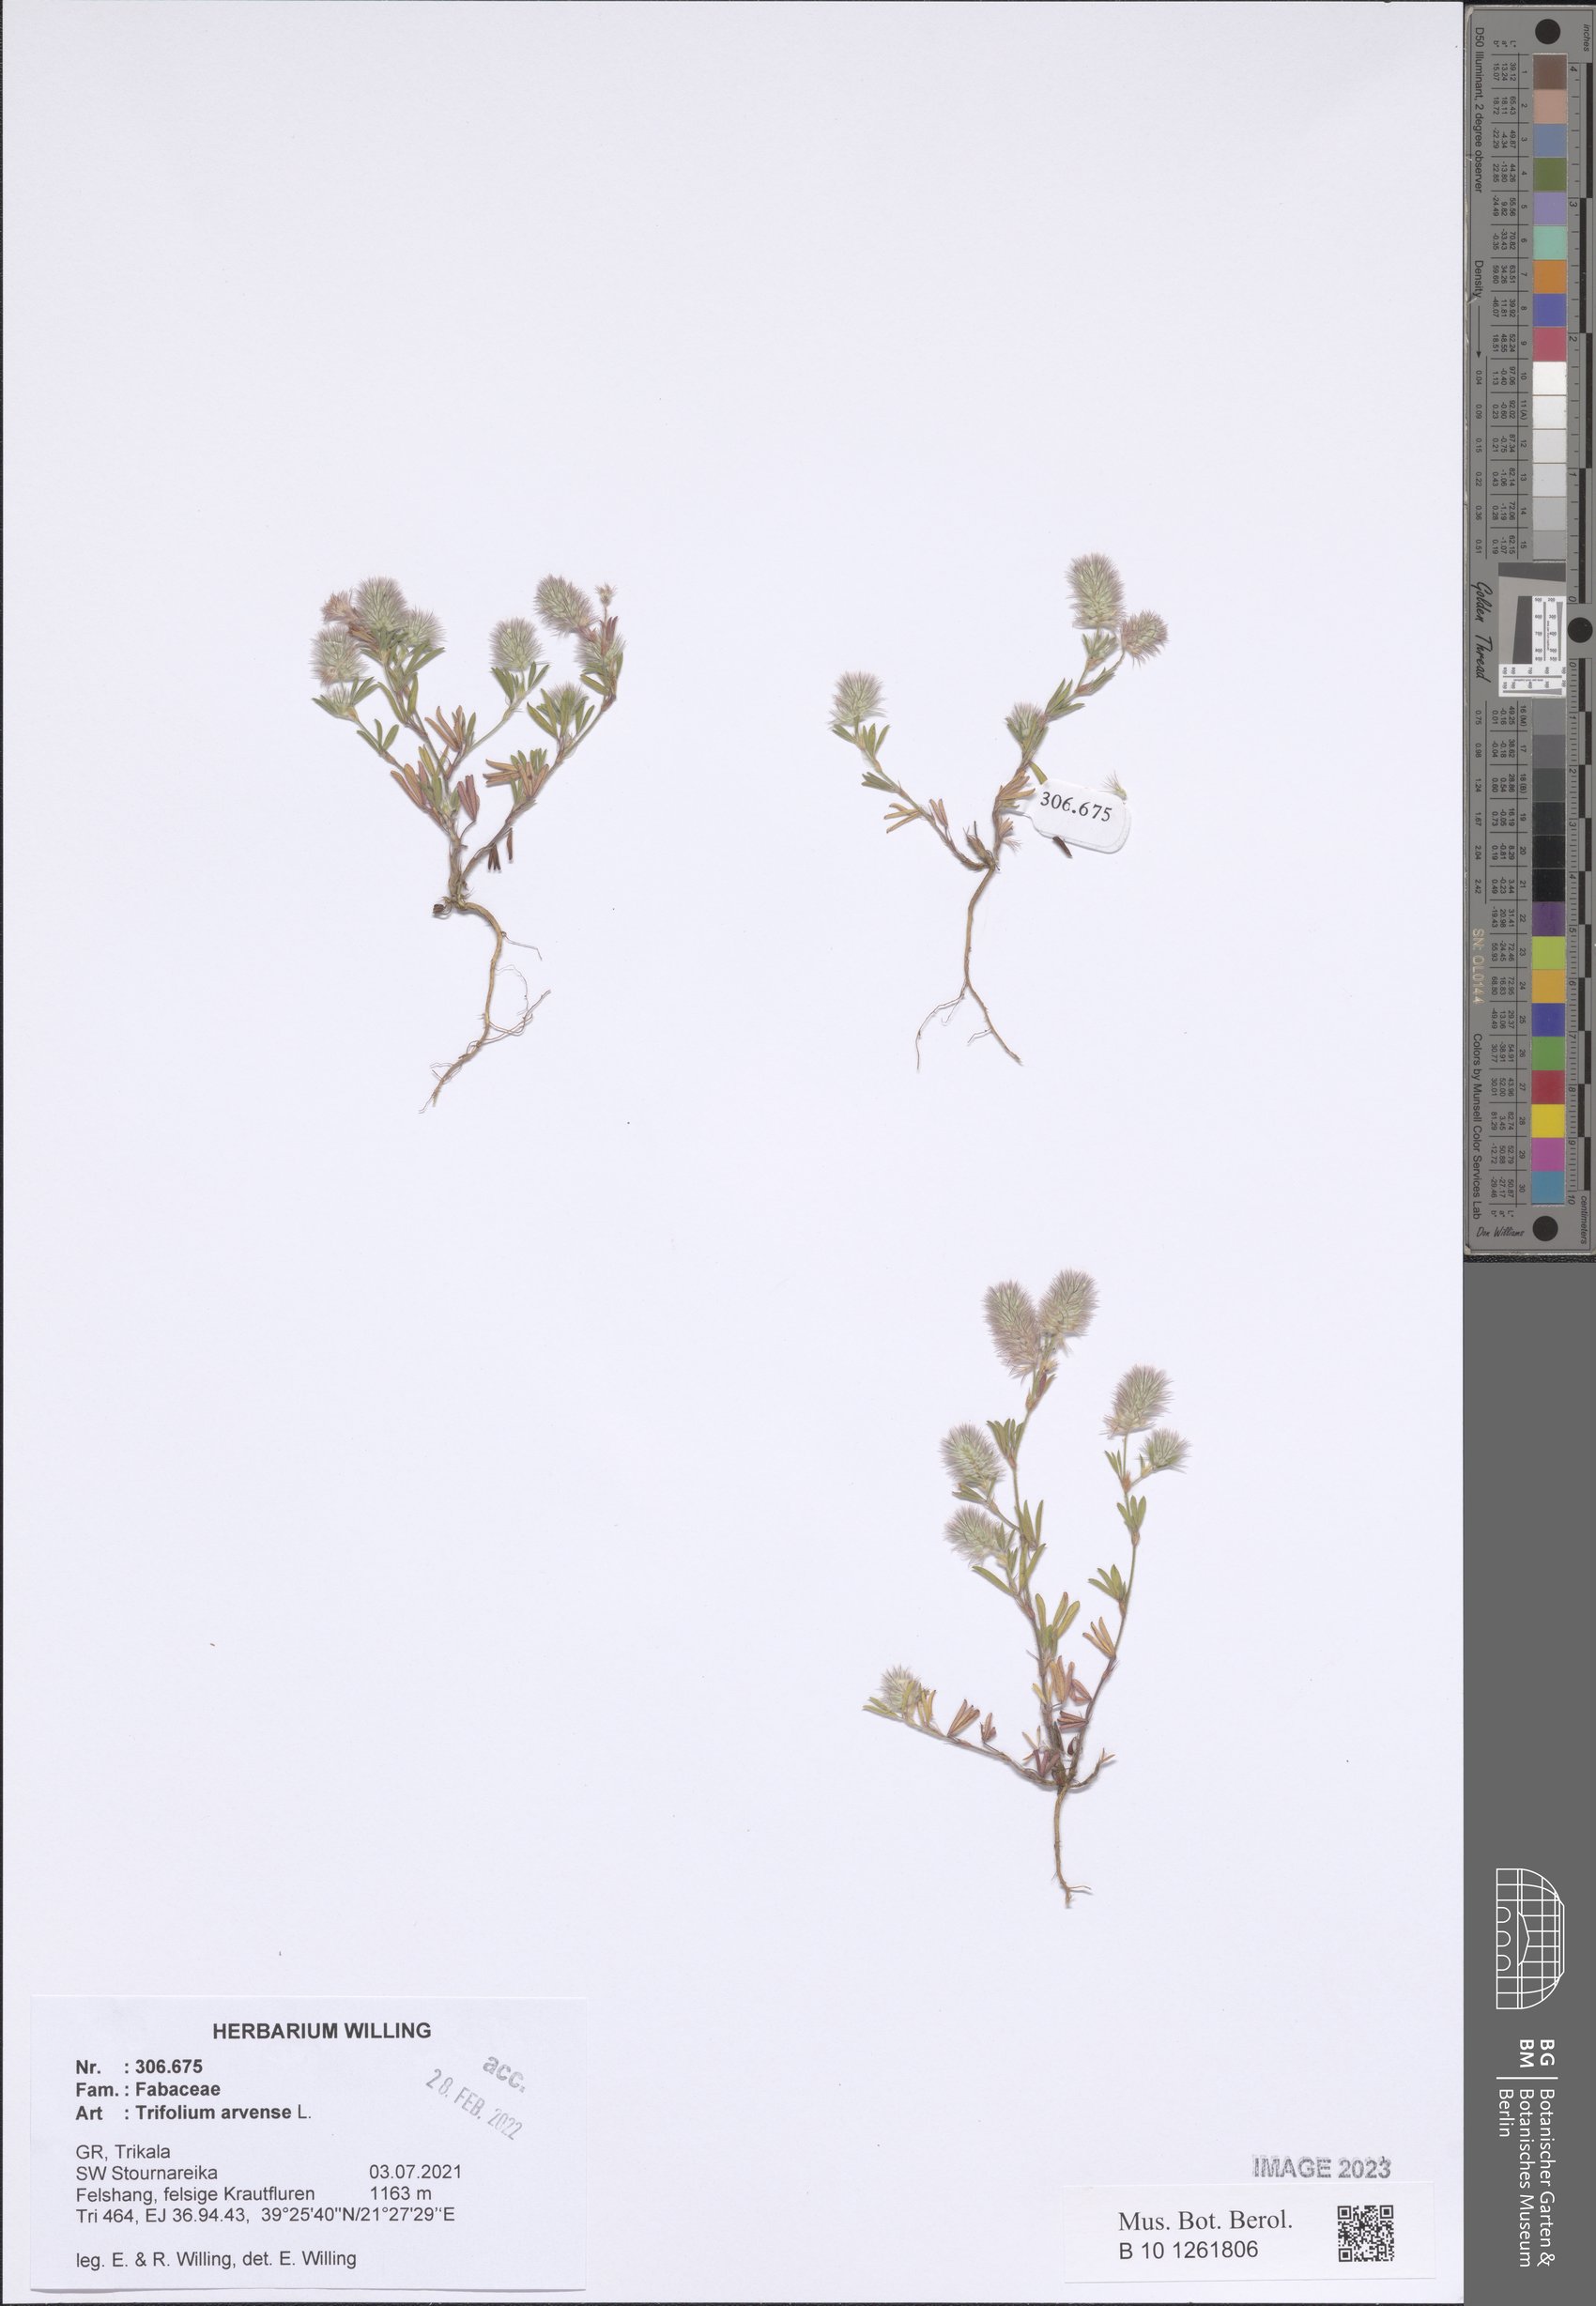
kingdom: Plantae
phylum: Tracheophyta
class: Magnoliopsida
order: Fabales
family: Fabaceae
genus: Trifolium
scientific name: Trifolium arvense
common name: Hare's-foot clover
